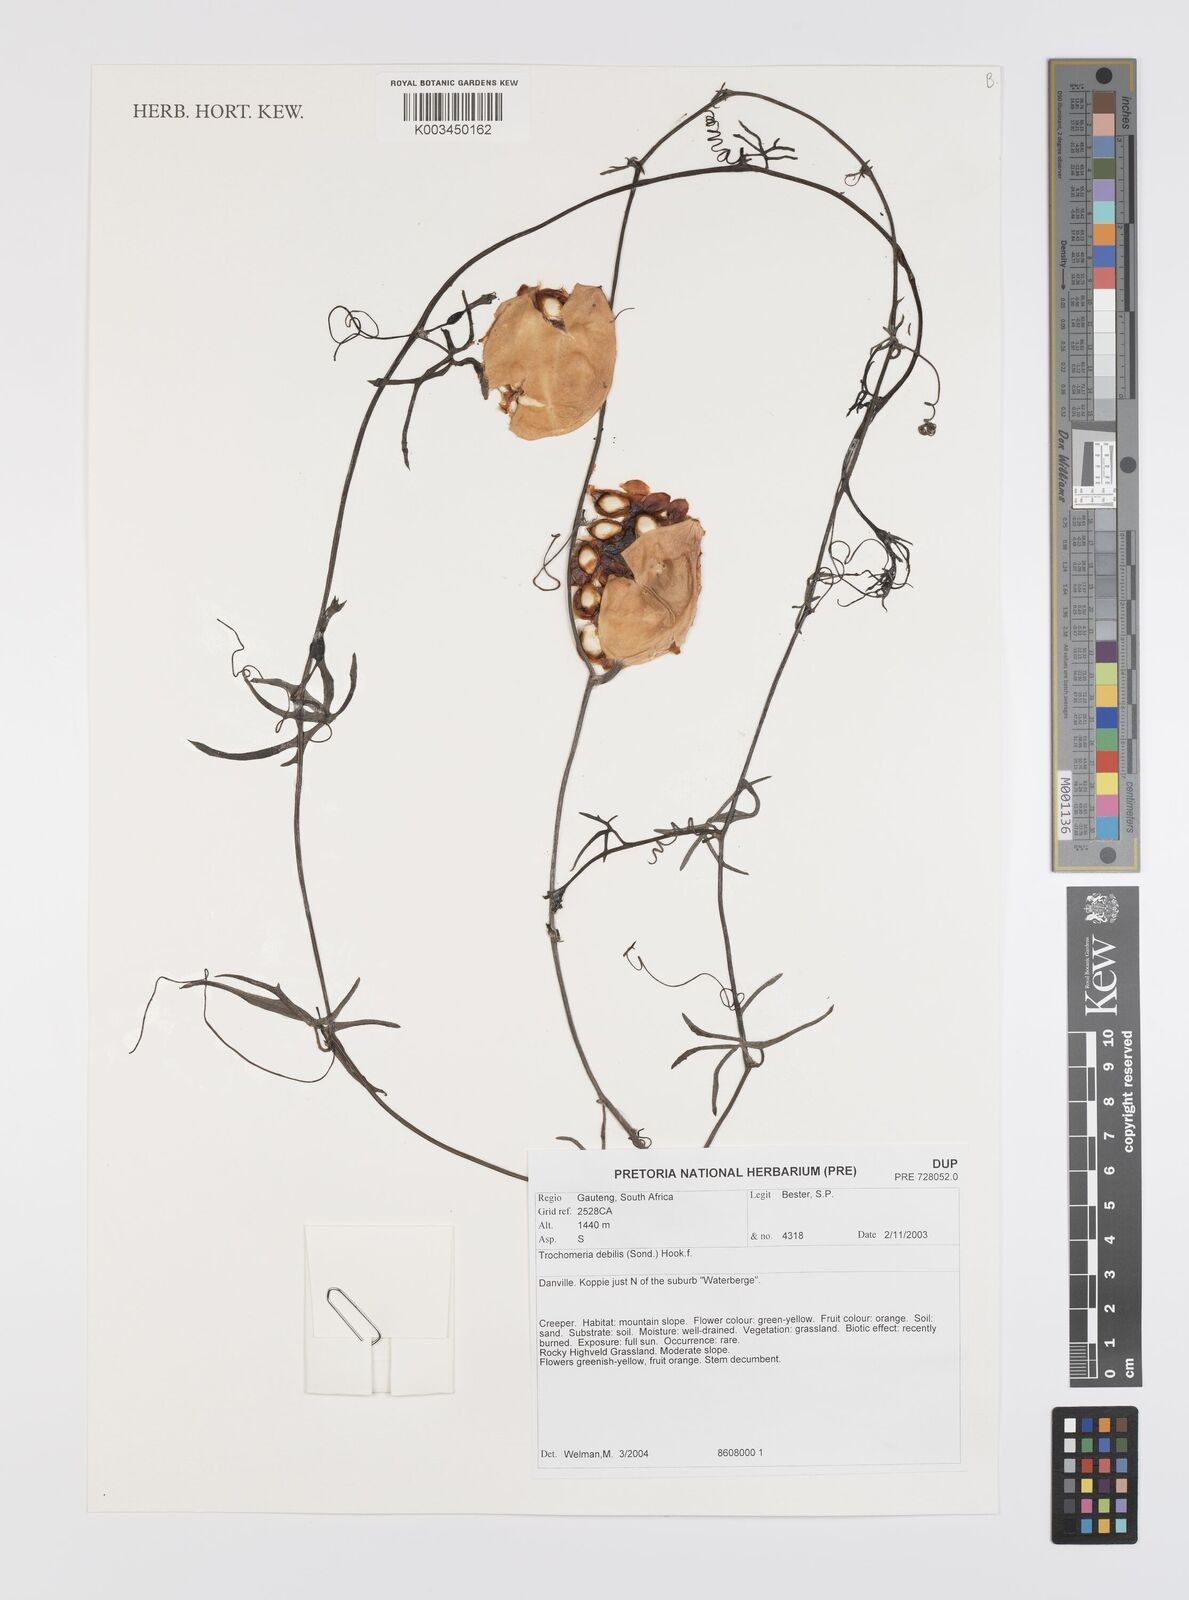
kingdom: Plantae
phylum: Tracheophyta
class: Magnoliopsida
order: Cucurbitales
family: Cucurbitaceae
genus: Trochomeria
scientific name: Trochomeria debilis
